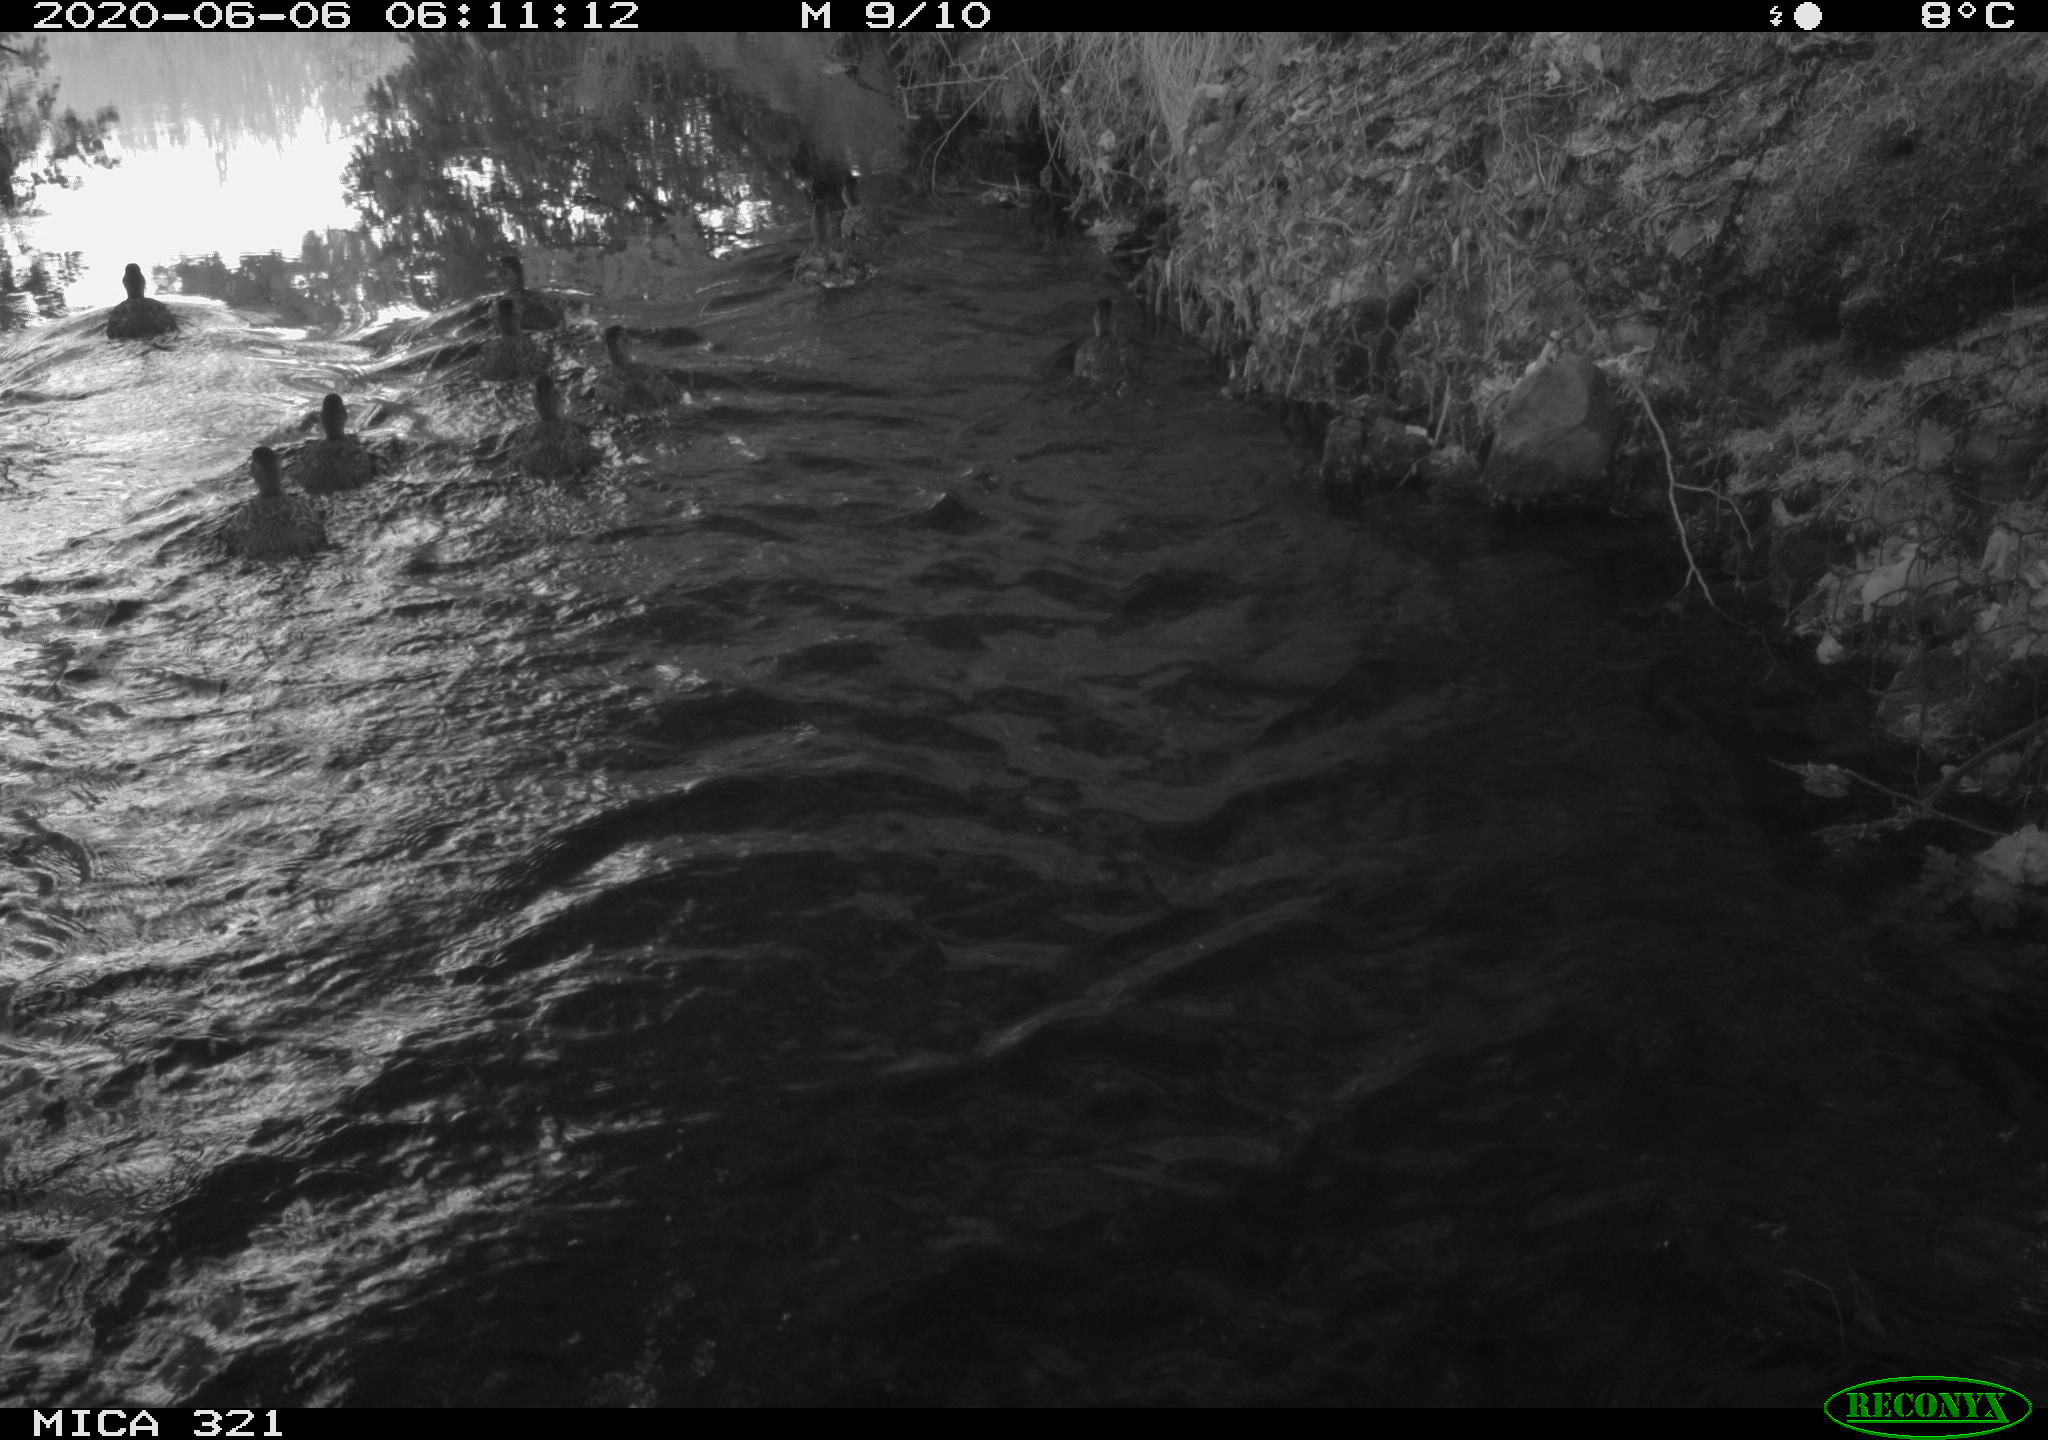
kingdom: Animalia
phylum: Chordata
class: Aves
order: Anseriformes
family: Anatidae
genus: Anas
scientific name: Anas platyrhynchos
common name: Mallard
